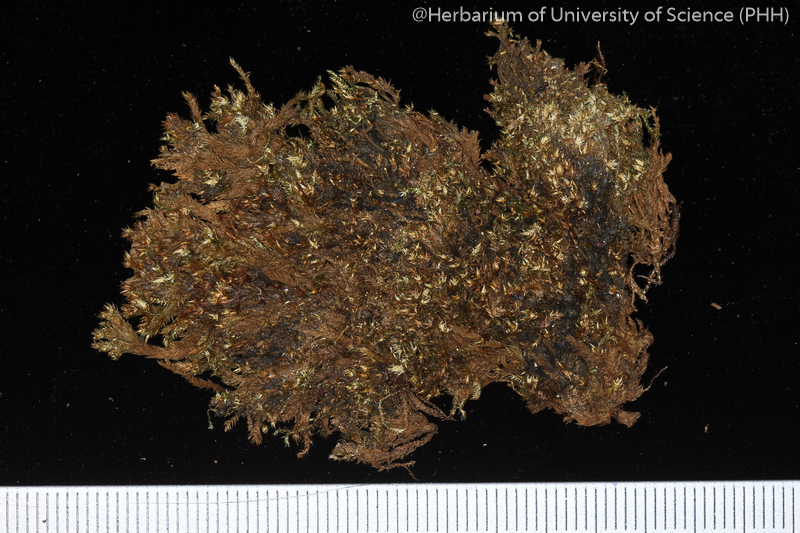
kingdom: Plantae
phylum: Bryophyta
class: Bryopsida
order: Hypnales
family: Brachytheciaceae
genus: Palamocladium
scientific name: Palamocladium leskeoides
